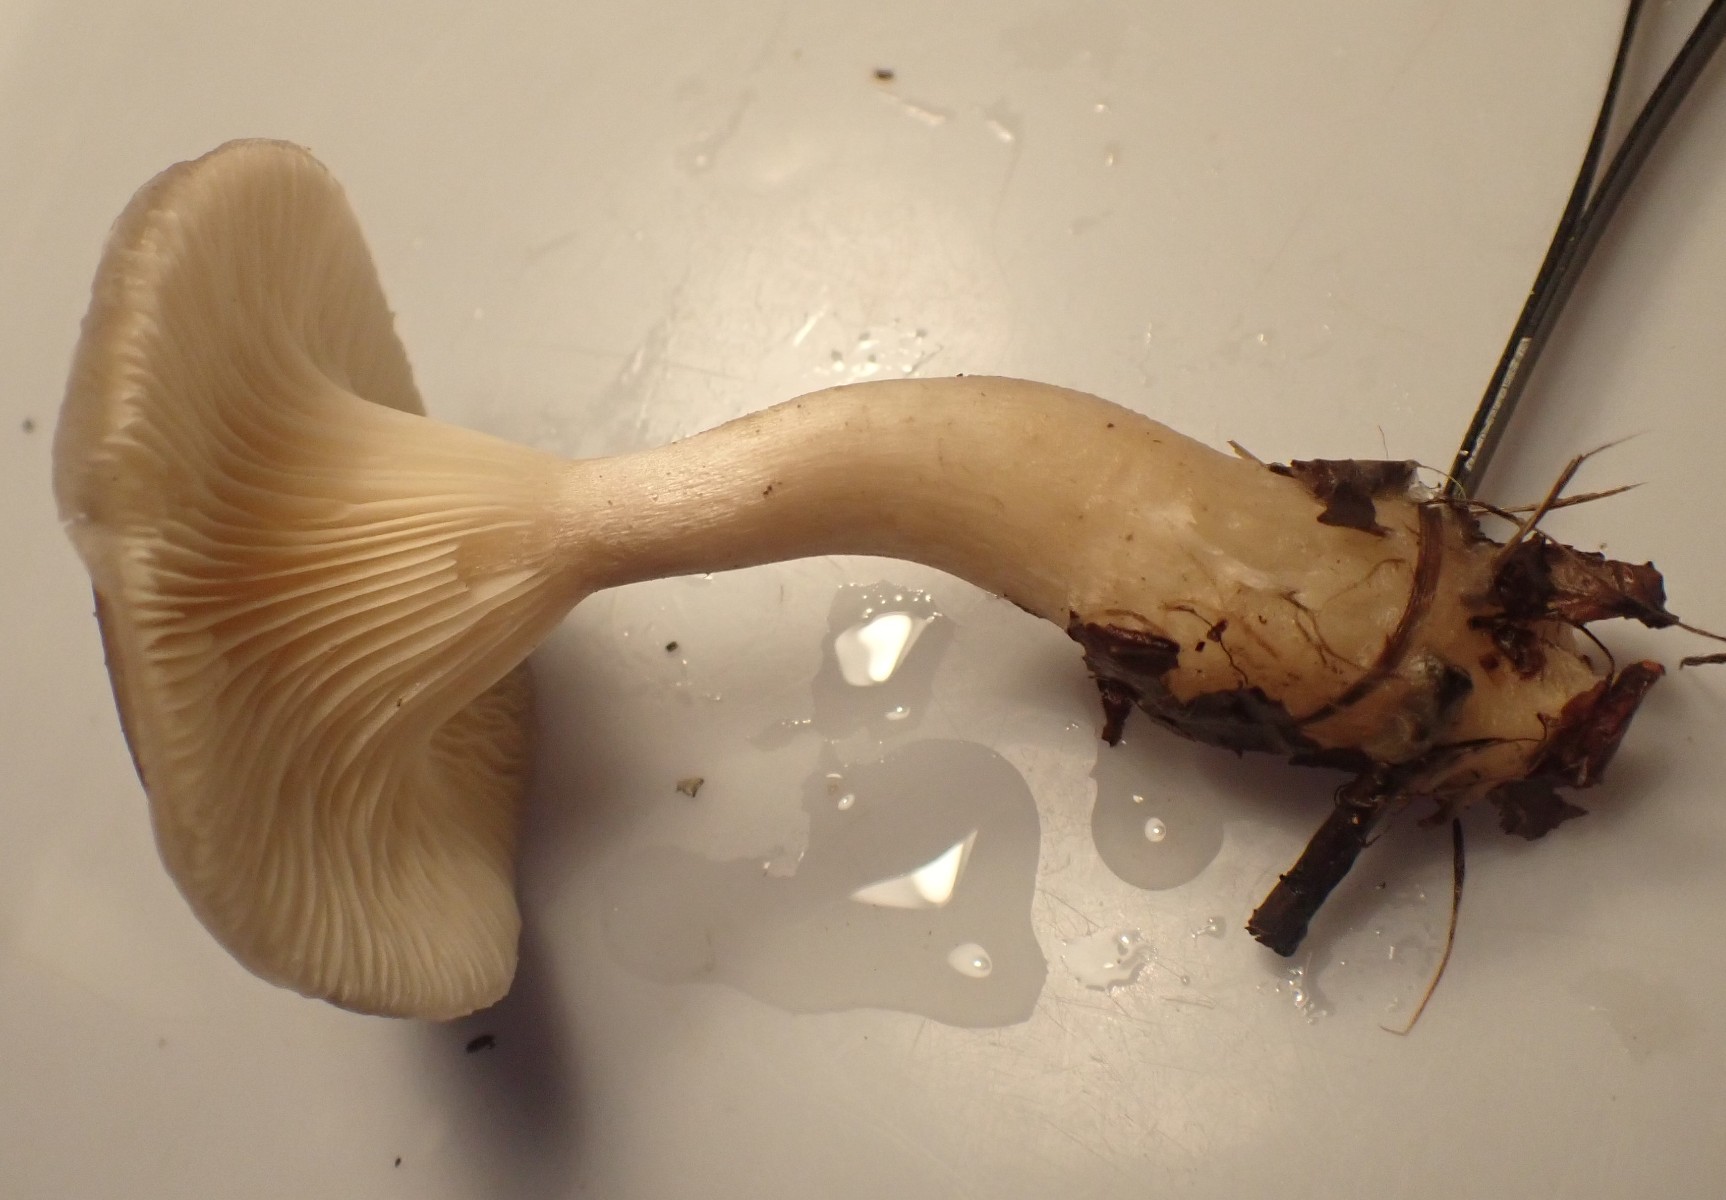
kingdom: Fungi
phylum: Basidiomycota
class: Agaricomycetes
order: Agaricales
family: Hygrophoraceae
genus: Ampulloclitocybe
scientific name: Ampulloclitocybe clavipes
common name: køllefod
